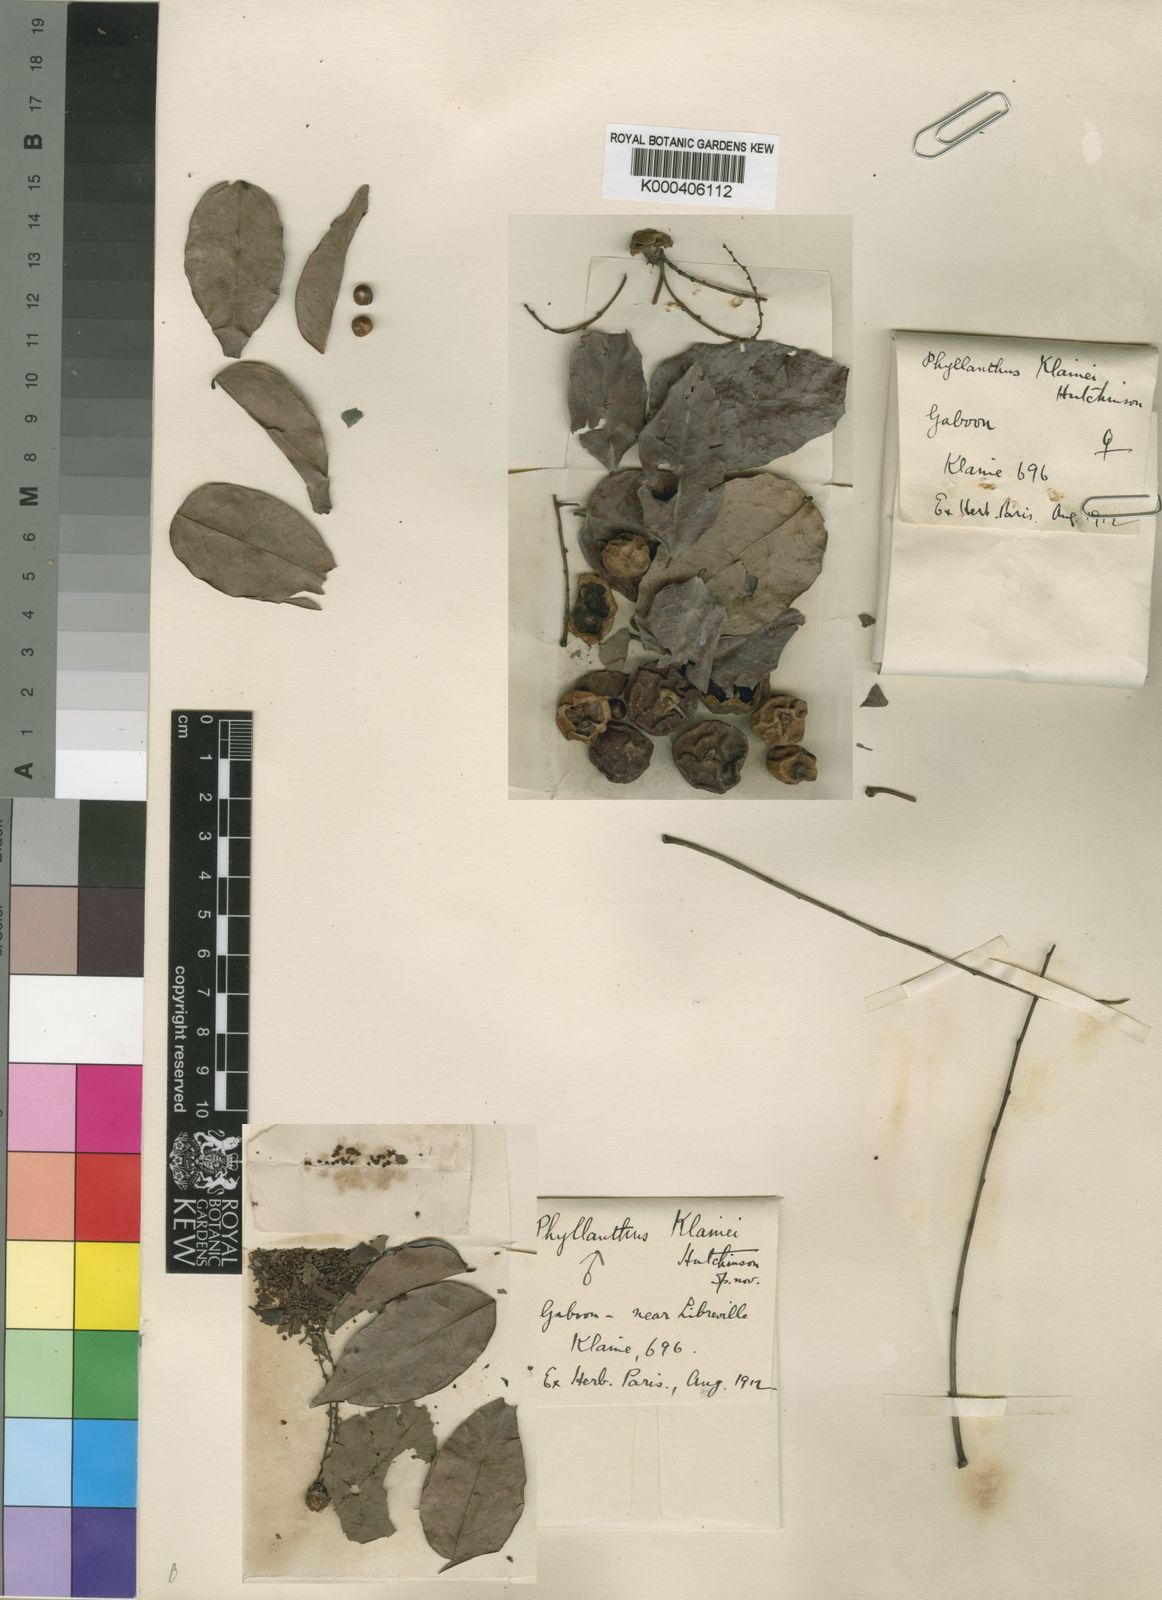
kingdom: Plantae
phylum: Tracheophyta
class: Magnoliopsida
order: Malpighiales
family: Phyllanthaceae
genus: Phyllanthus
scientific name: Phyllanthus
